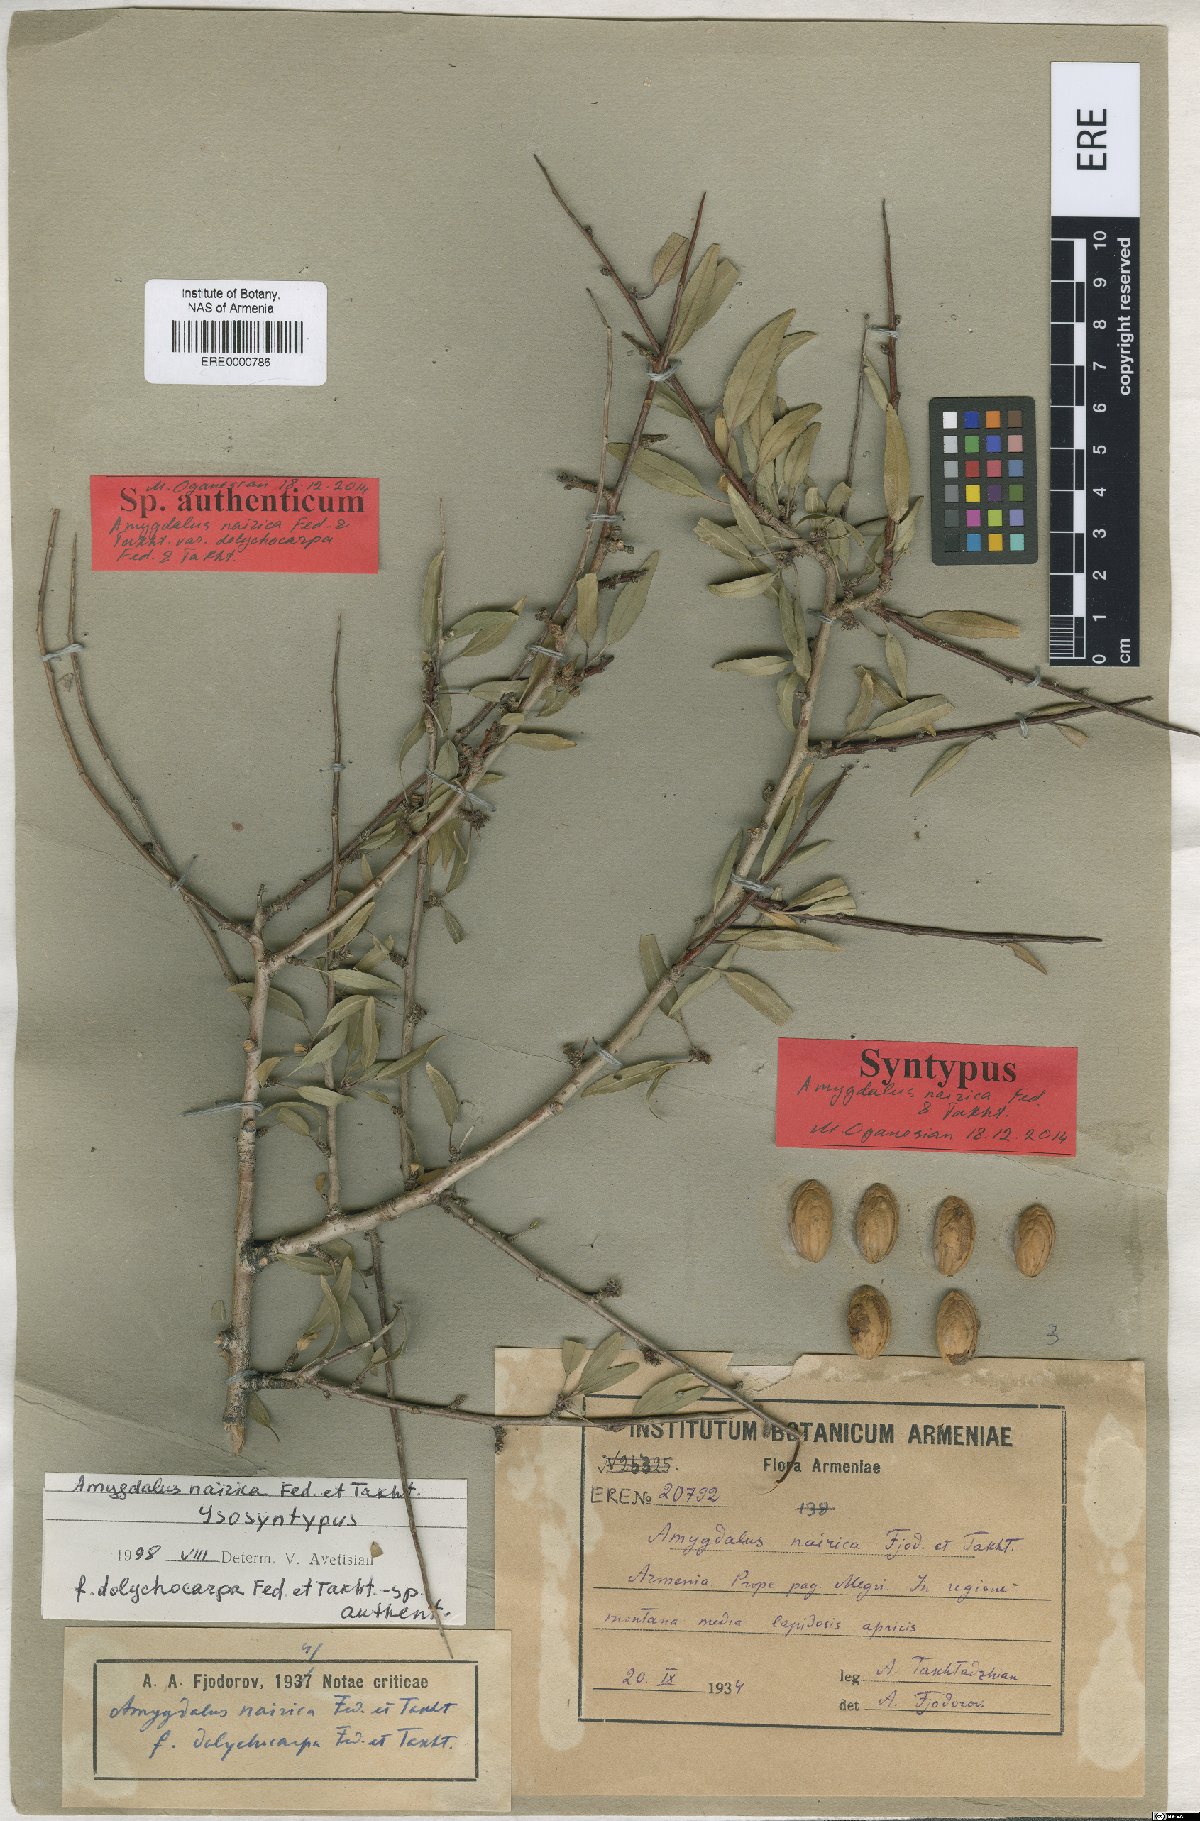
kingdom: Plantae
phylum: Tracheophyta
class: Magnoliopsida
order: Rosales
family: Rosaceae
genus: Prunus
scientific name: Prunus nairica
